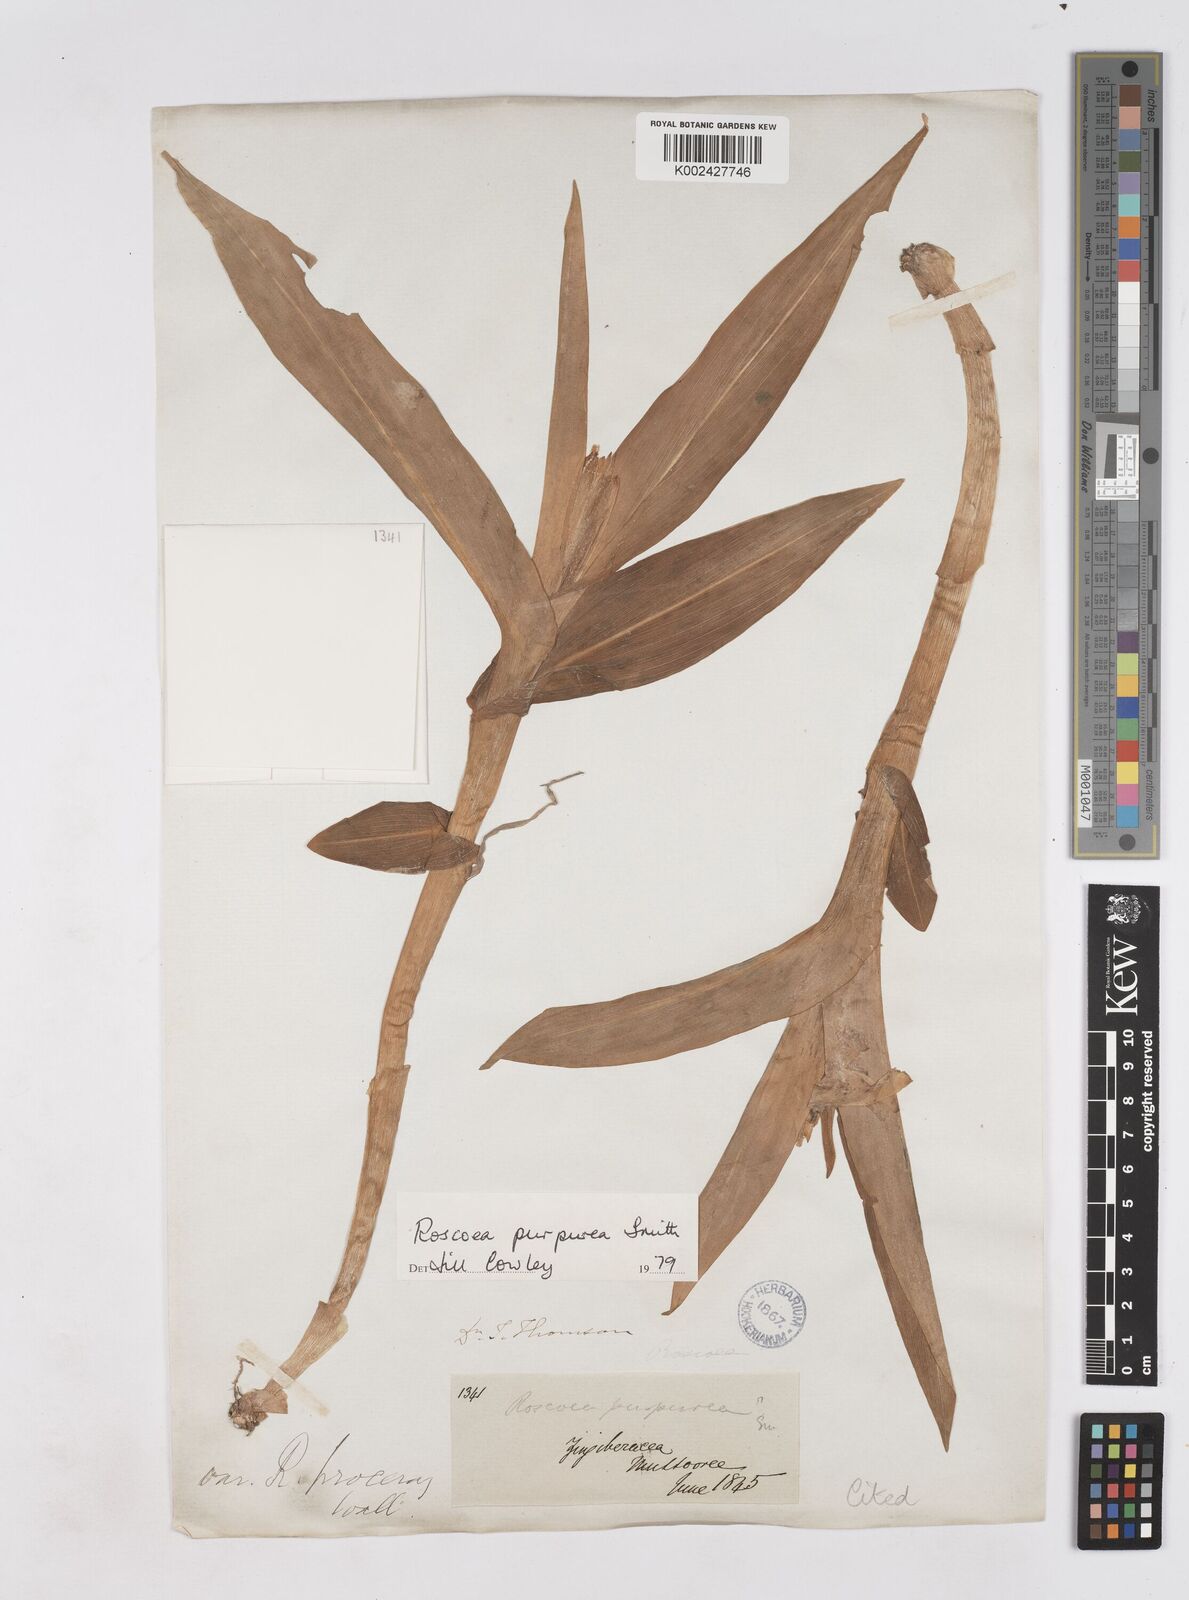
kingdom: Plantae
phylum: Tracheophyta
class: Liliopsida
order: Zingiberales
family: Zingiberaceae
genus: Roscoea
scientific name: Roscoea purpurea
